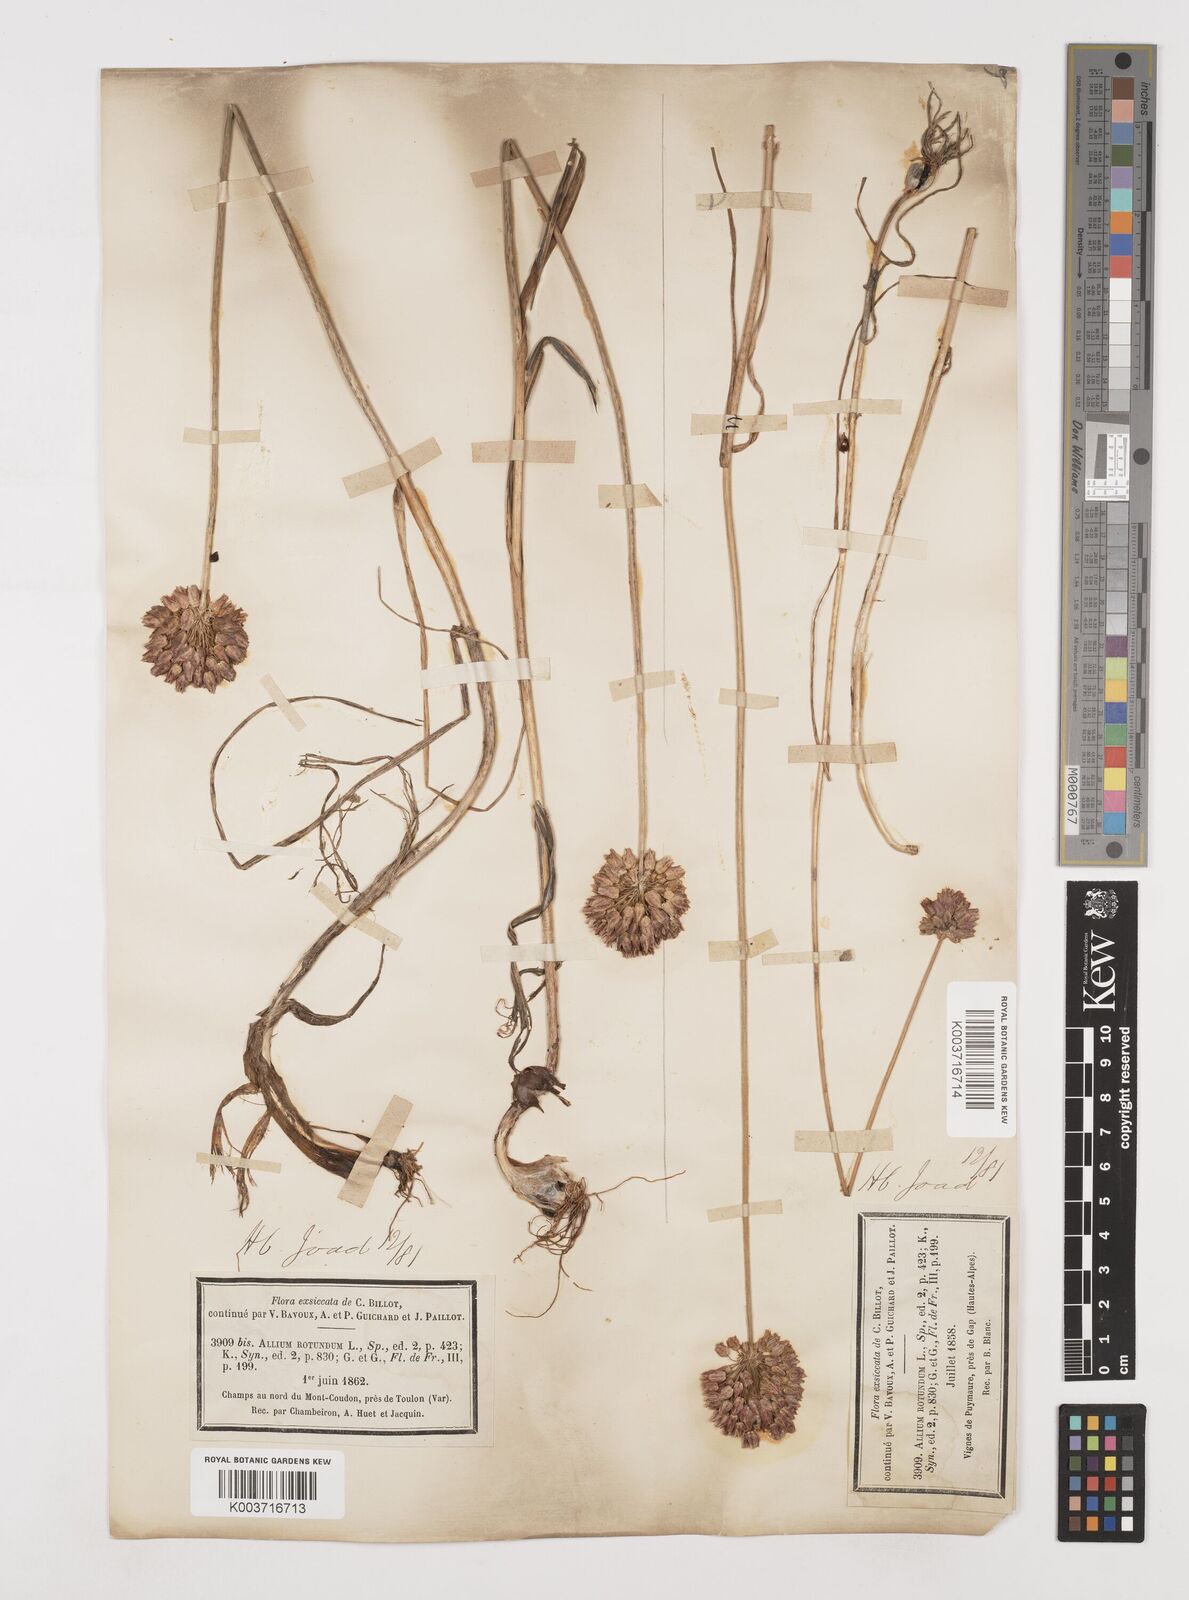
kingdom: Plantae
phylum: Tracheophyta
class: Liliopsida
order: Asparagales
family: Amaryllidaceae
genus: Allium
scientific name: Allium rotundum
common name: Sand leek
